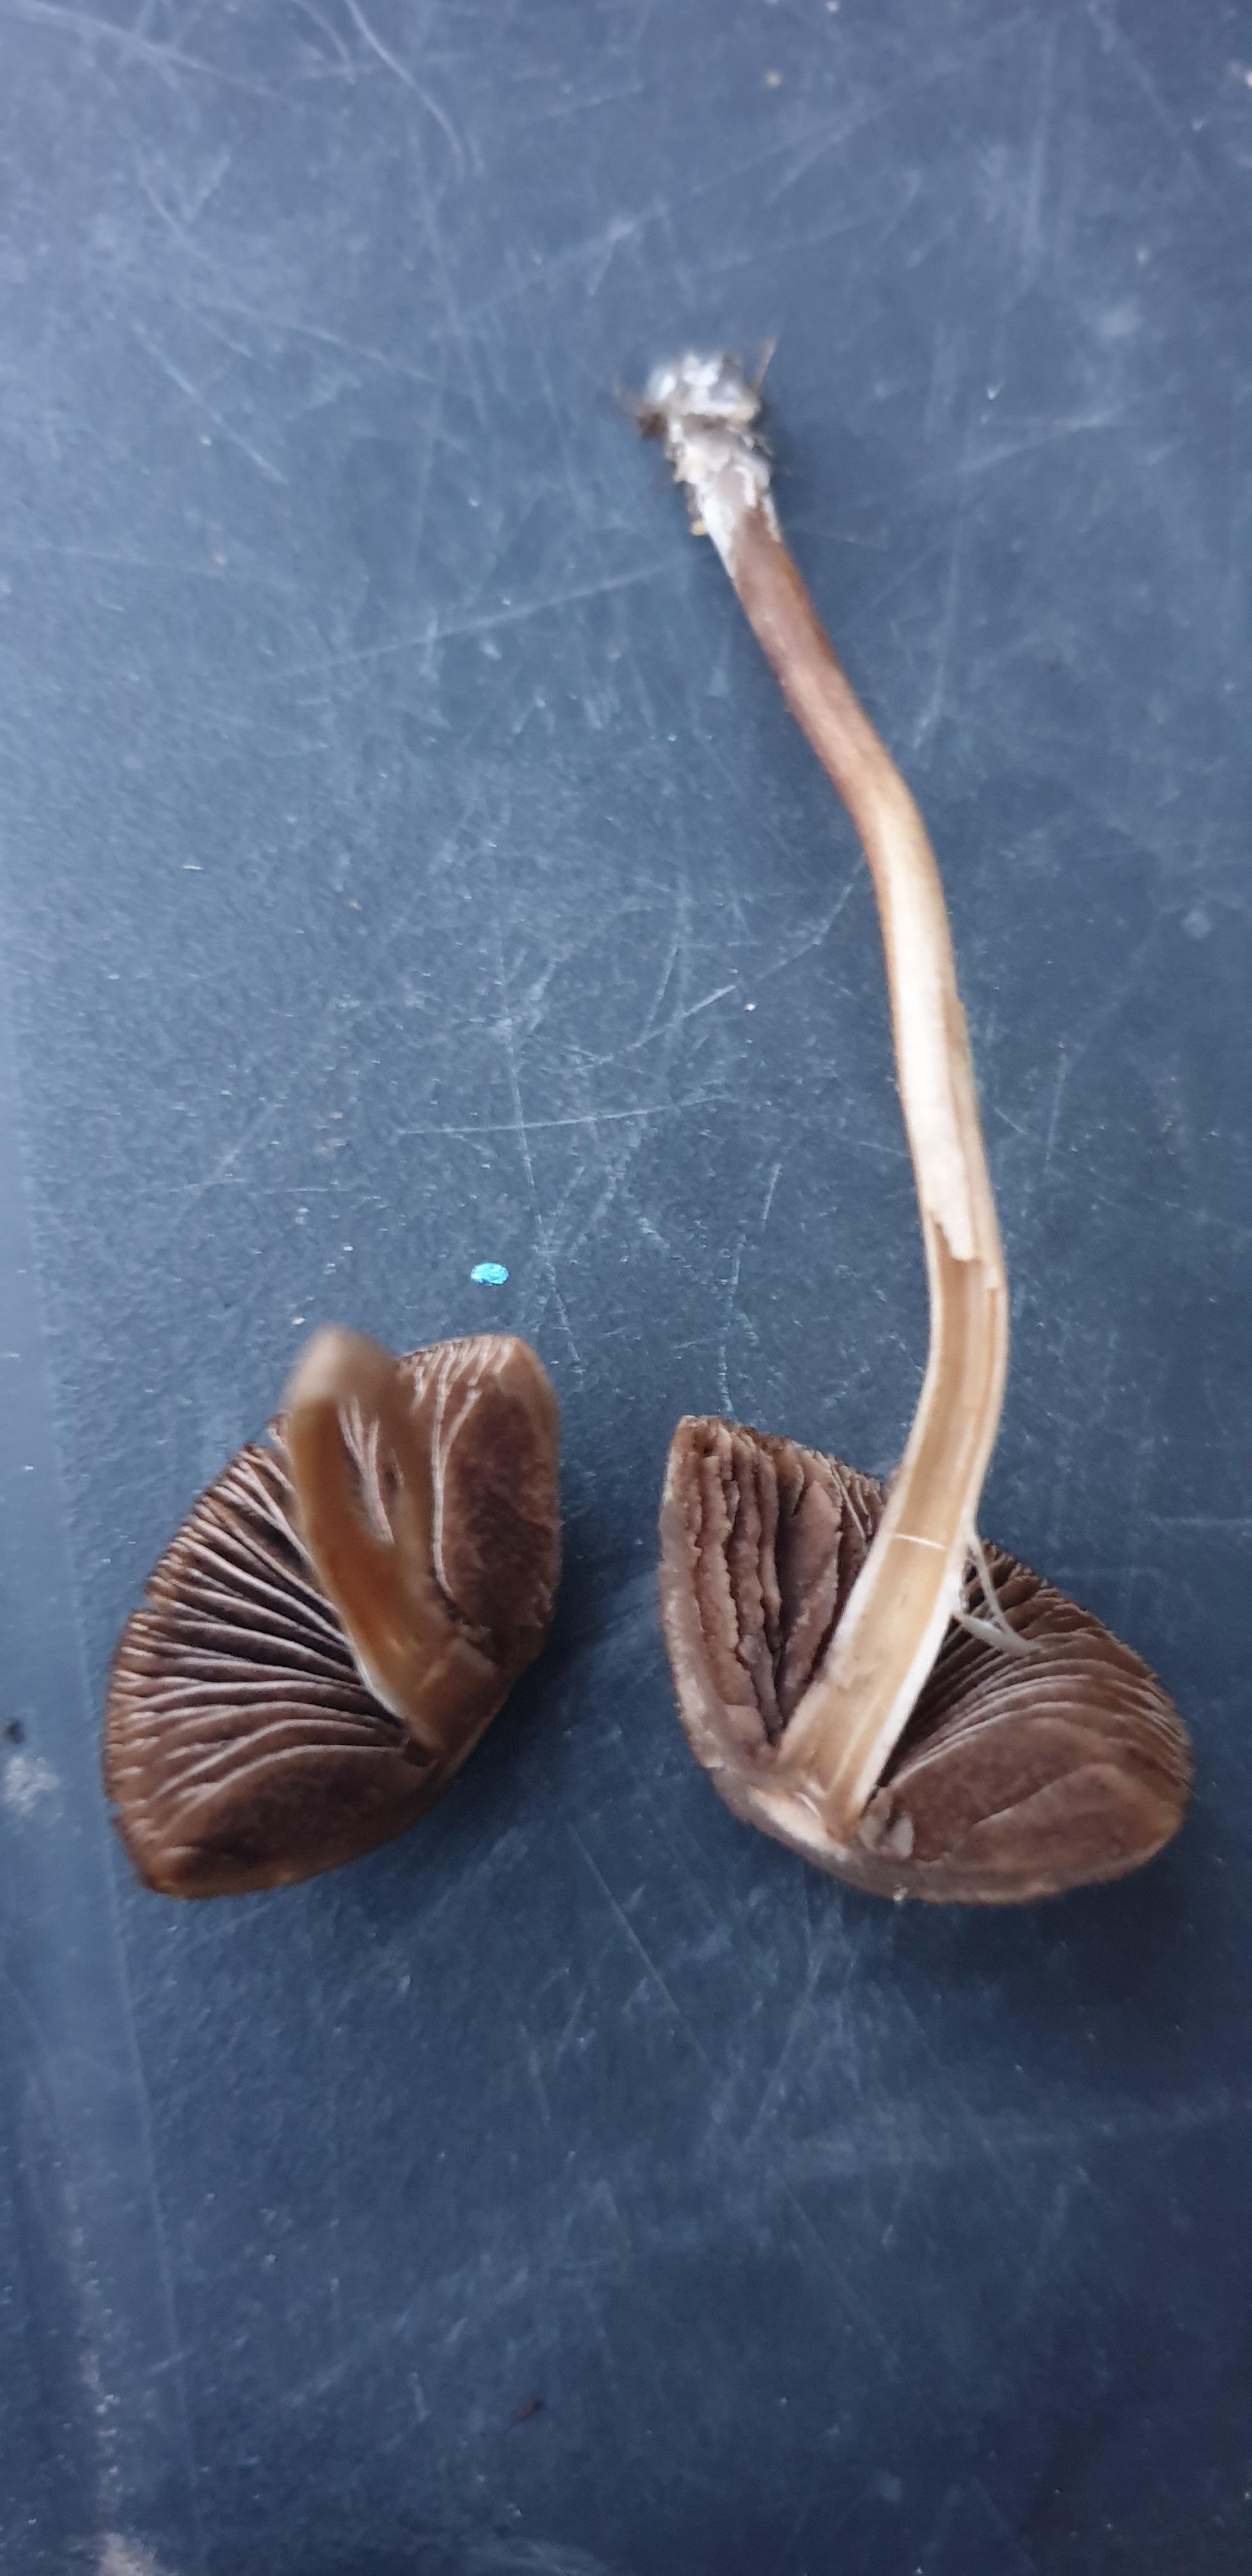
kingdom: Fungi
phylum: Basidiomycota
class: Agaricomycetes
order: Agaricales
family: Bolbitiaceae
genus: Panaeolina
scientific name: Panaeolina foenisecii
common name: høslætsvamp
